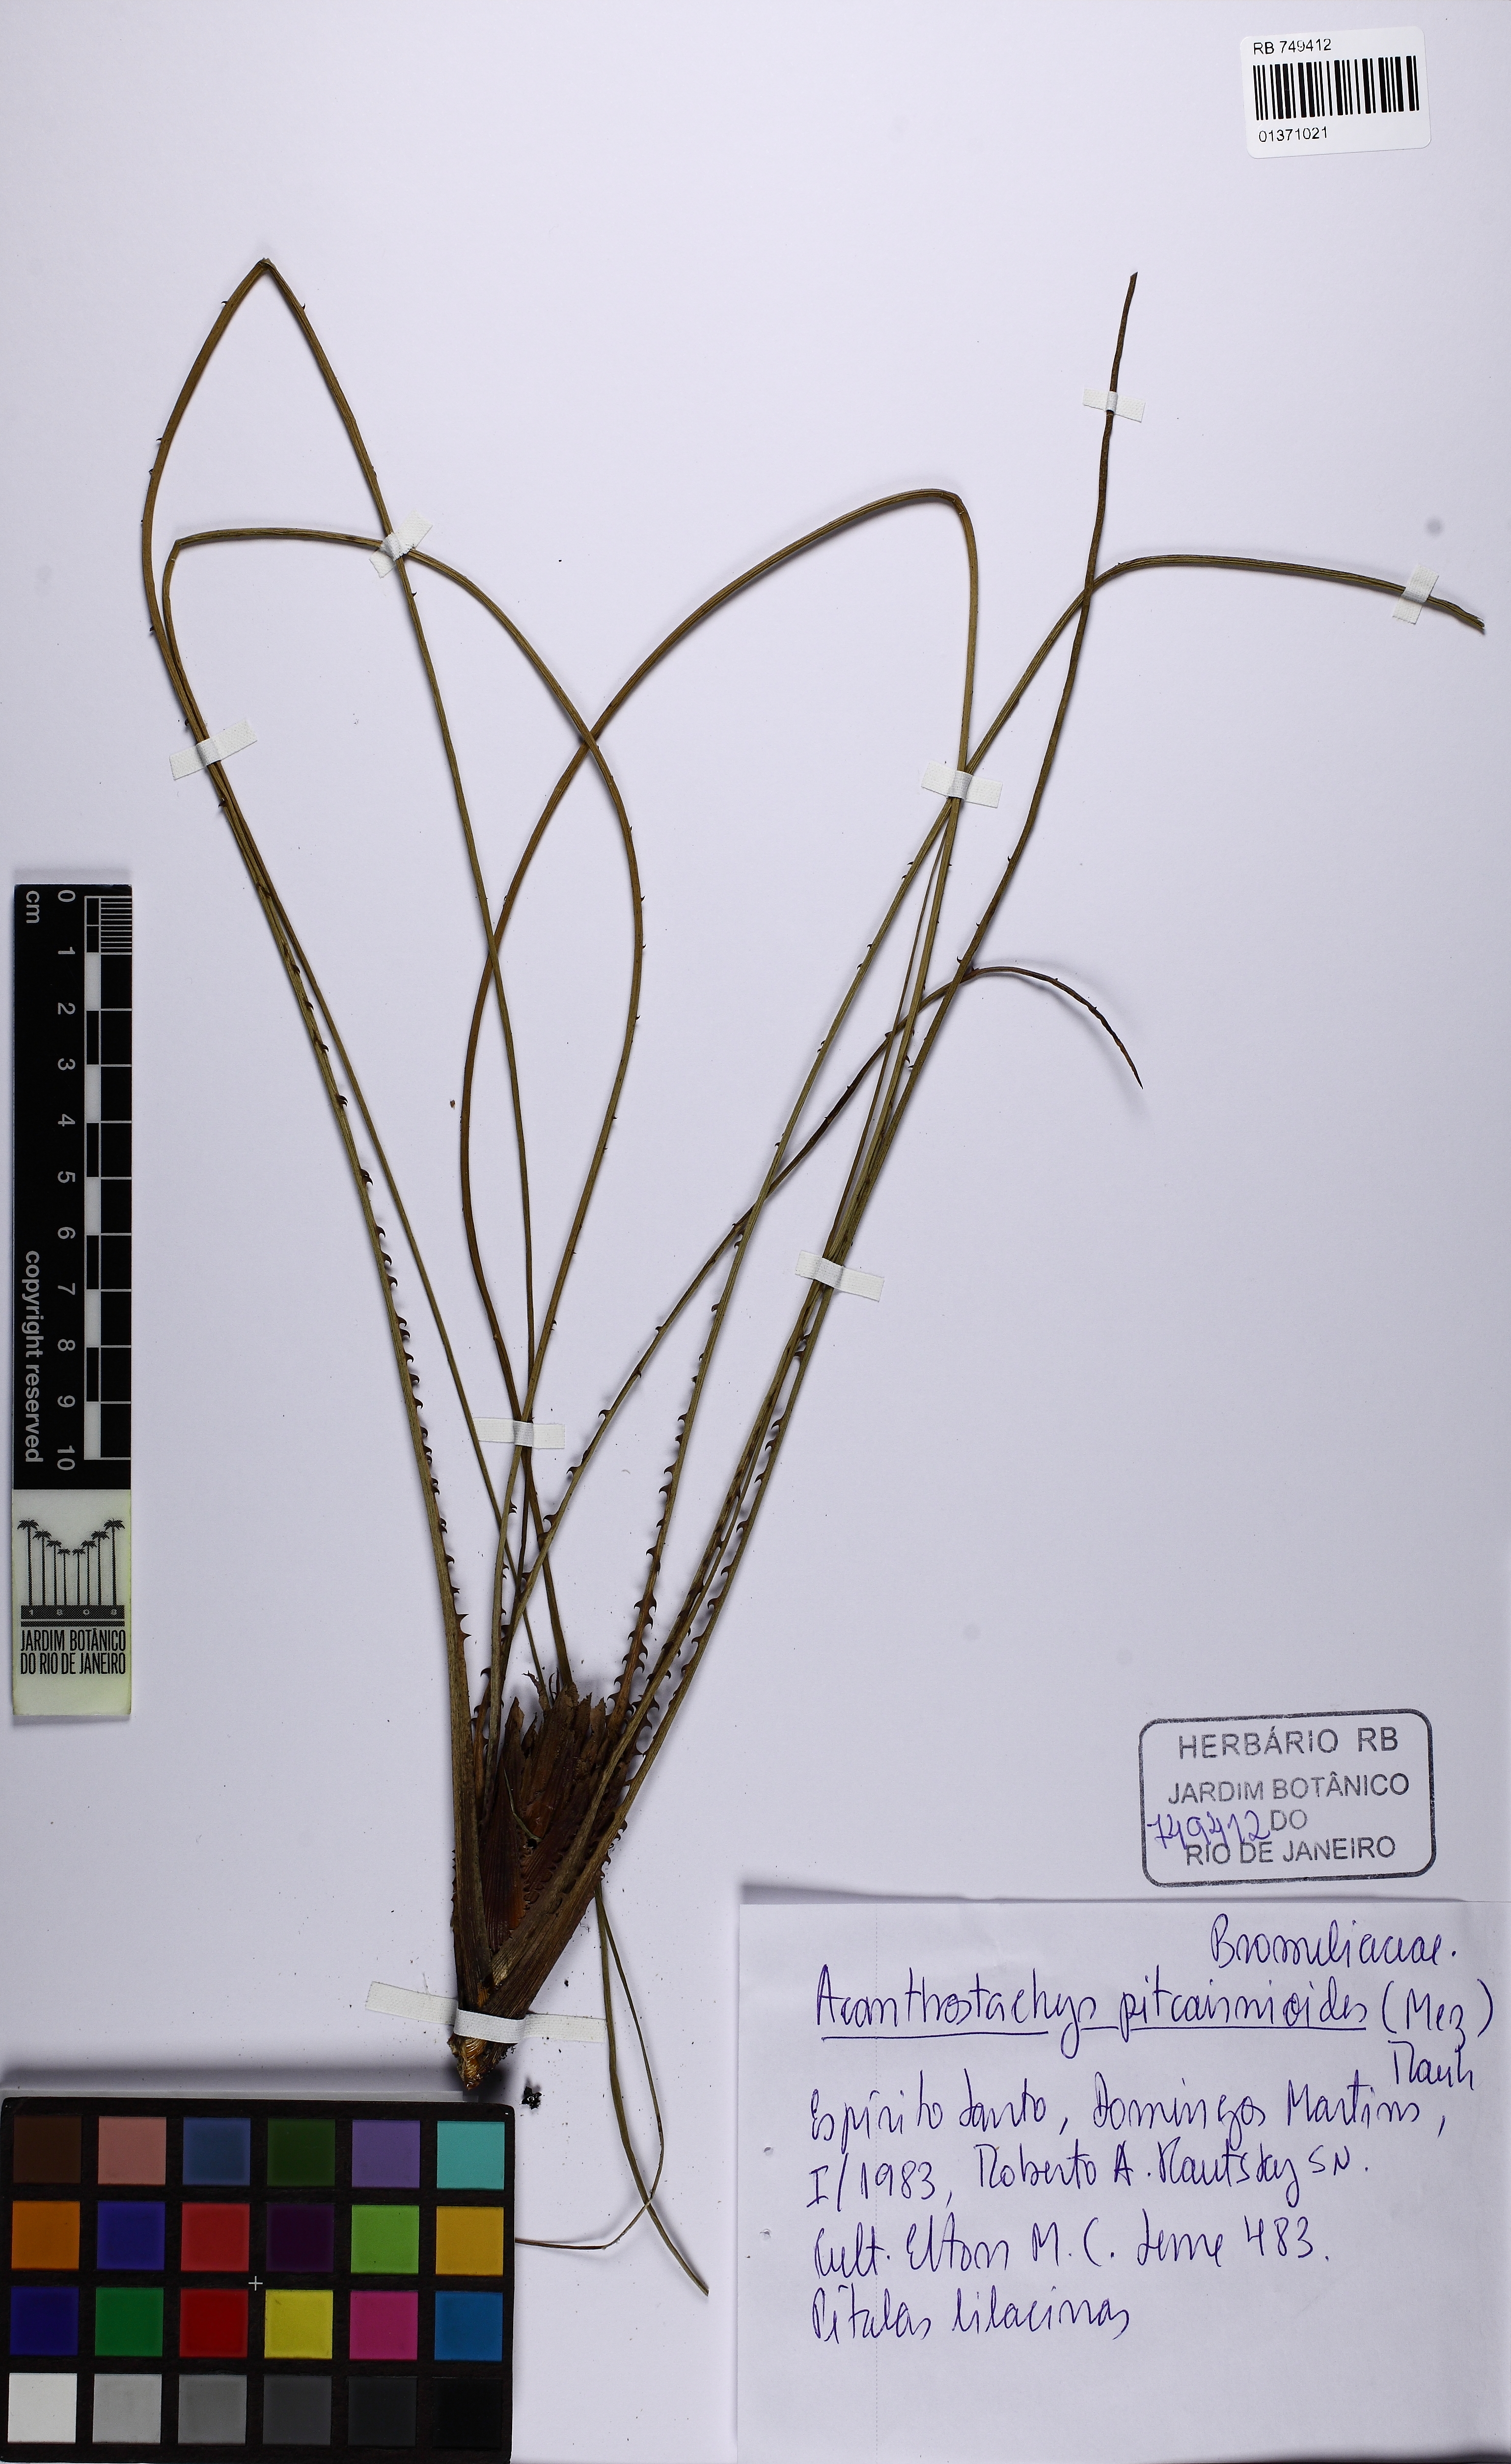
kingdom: Plantae
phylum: Tracheophyta
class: Liliopsida
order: Poales
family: Bromeliaceae
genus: Acanthostachys
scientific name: Acanthostachys pitcairnioides
